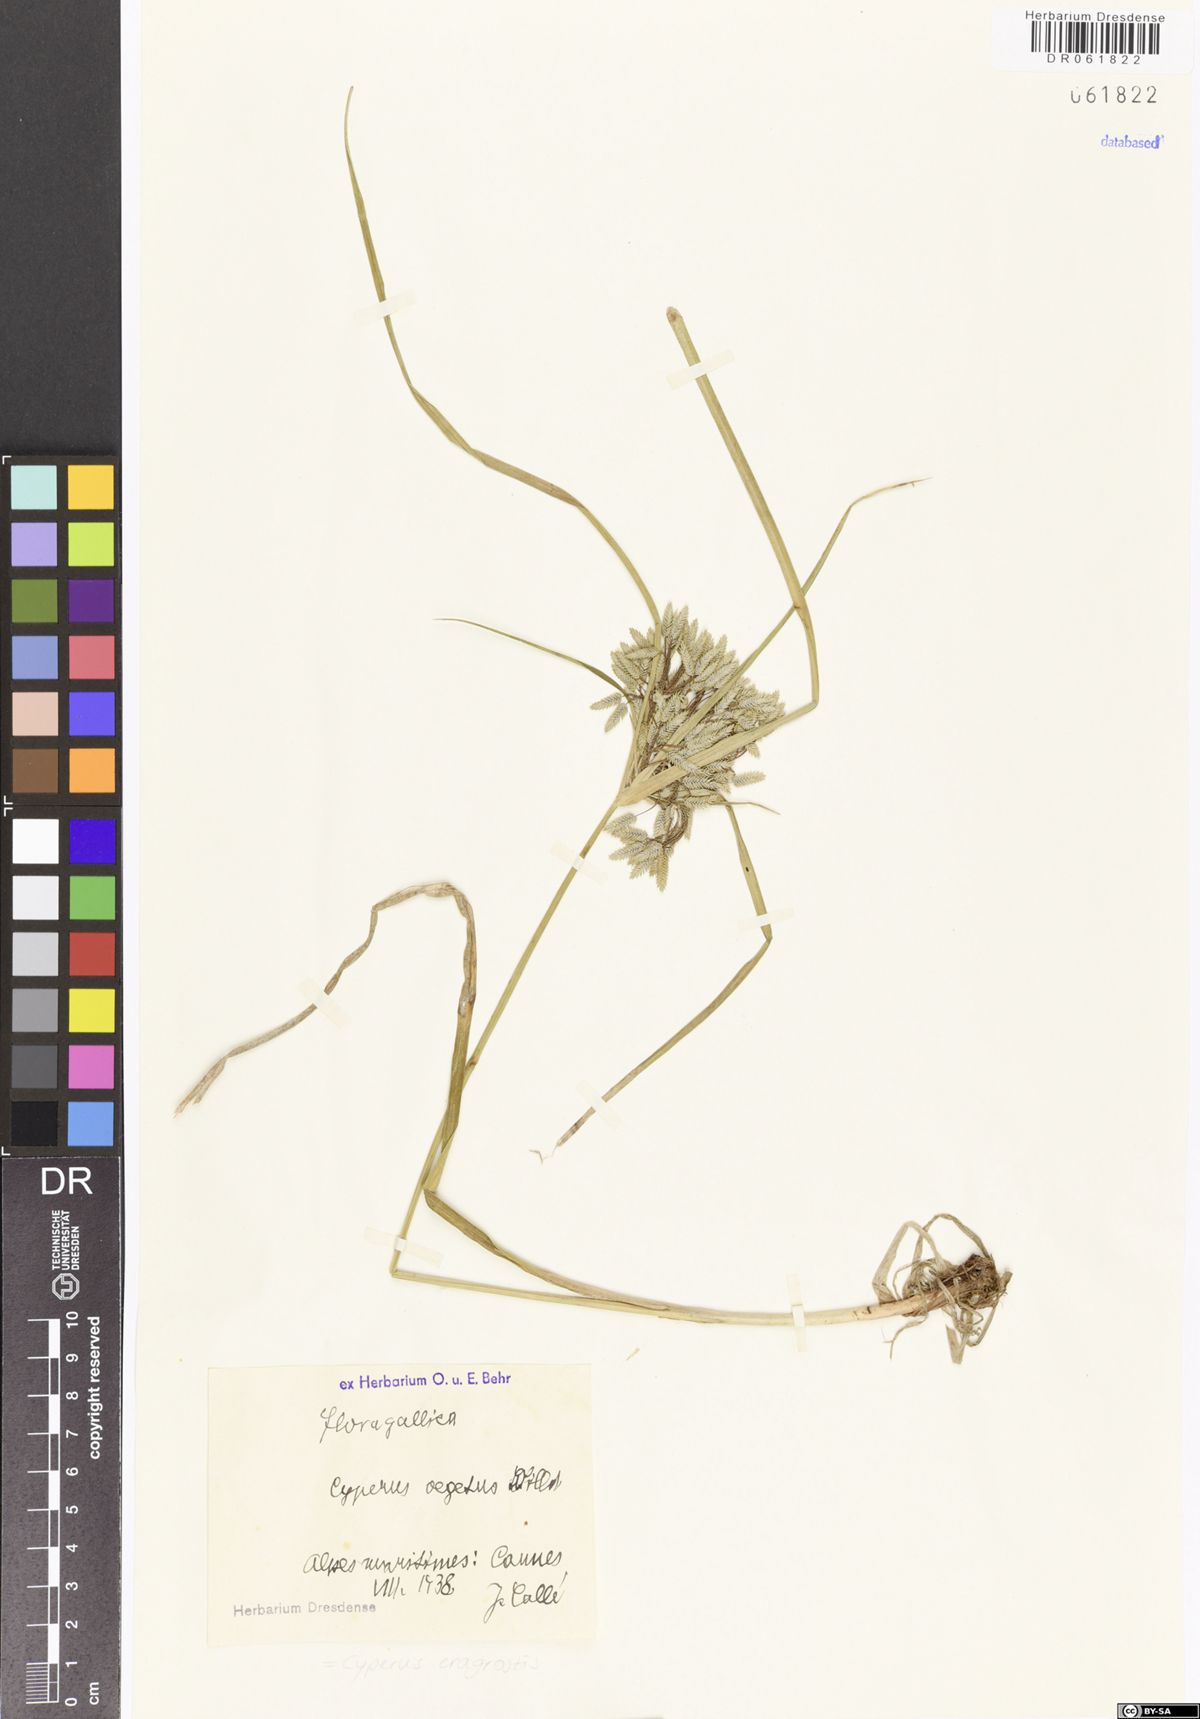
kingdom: Plantae
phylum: Tracheophyta
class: Liliopsida
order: Poales
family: Cyperaceae
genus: Cyperus
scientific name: Cyperus eragrostis
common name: Tall flatsedge
